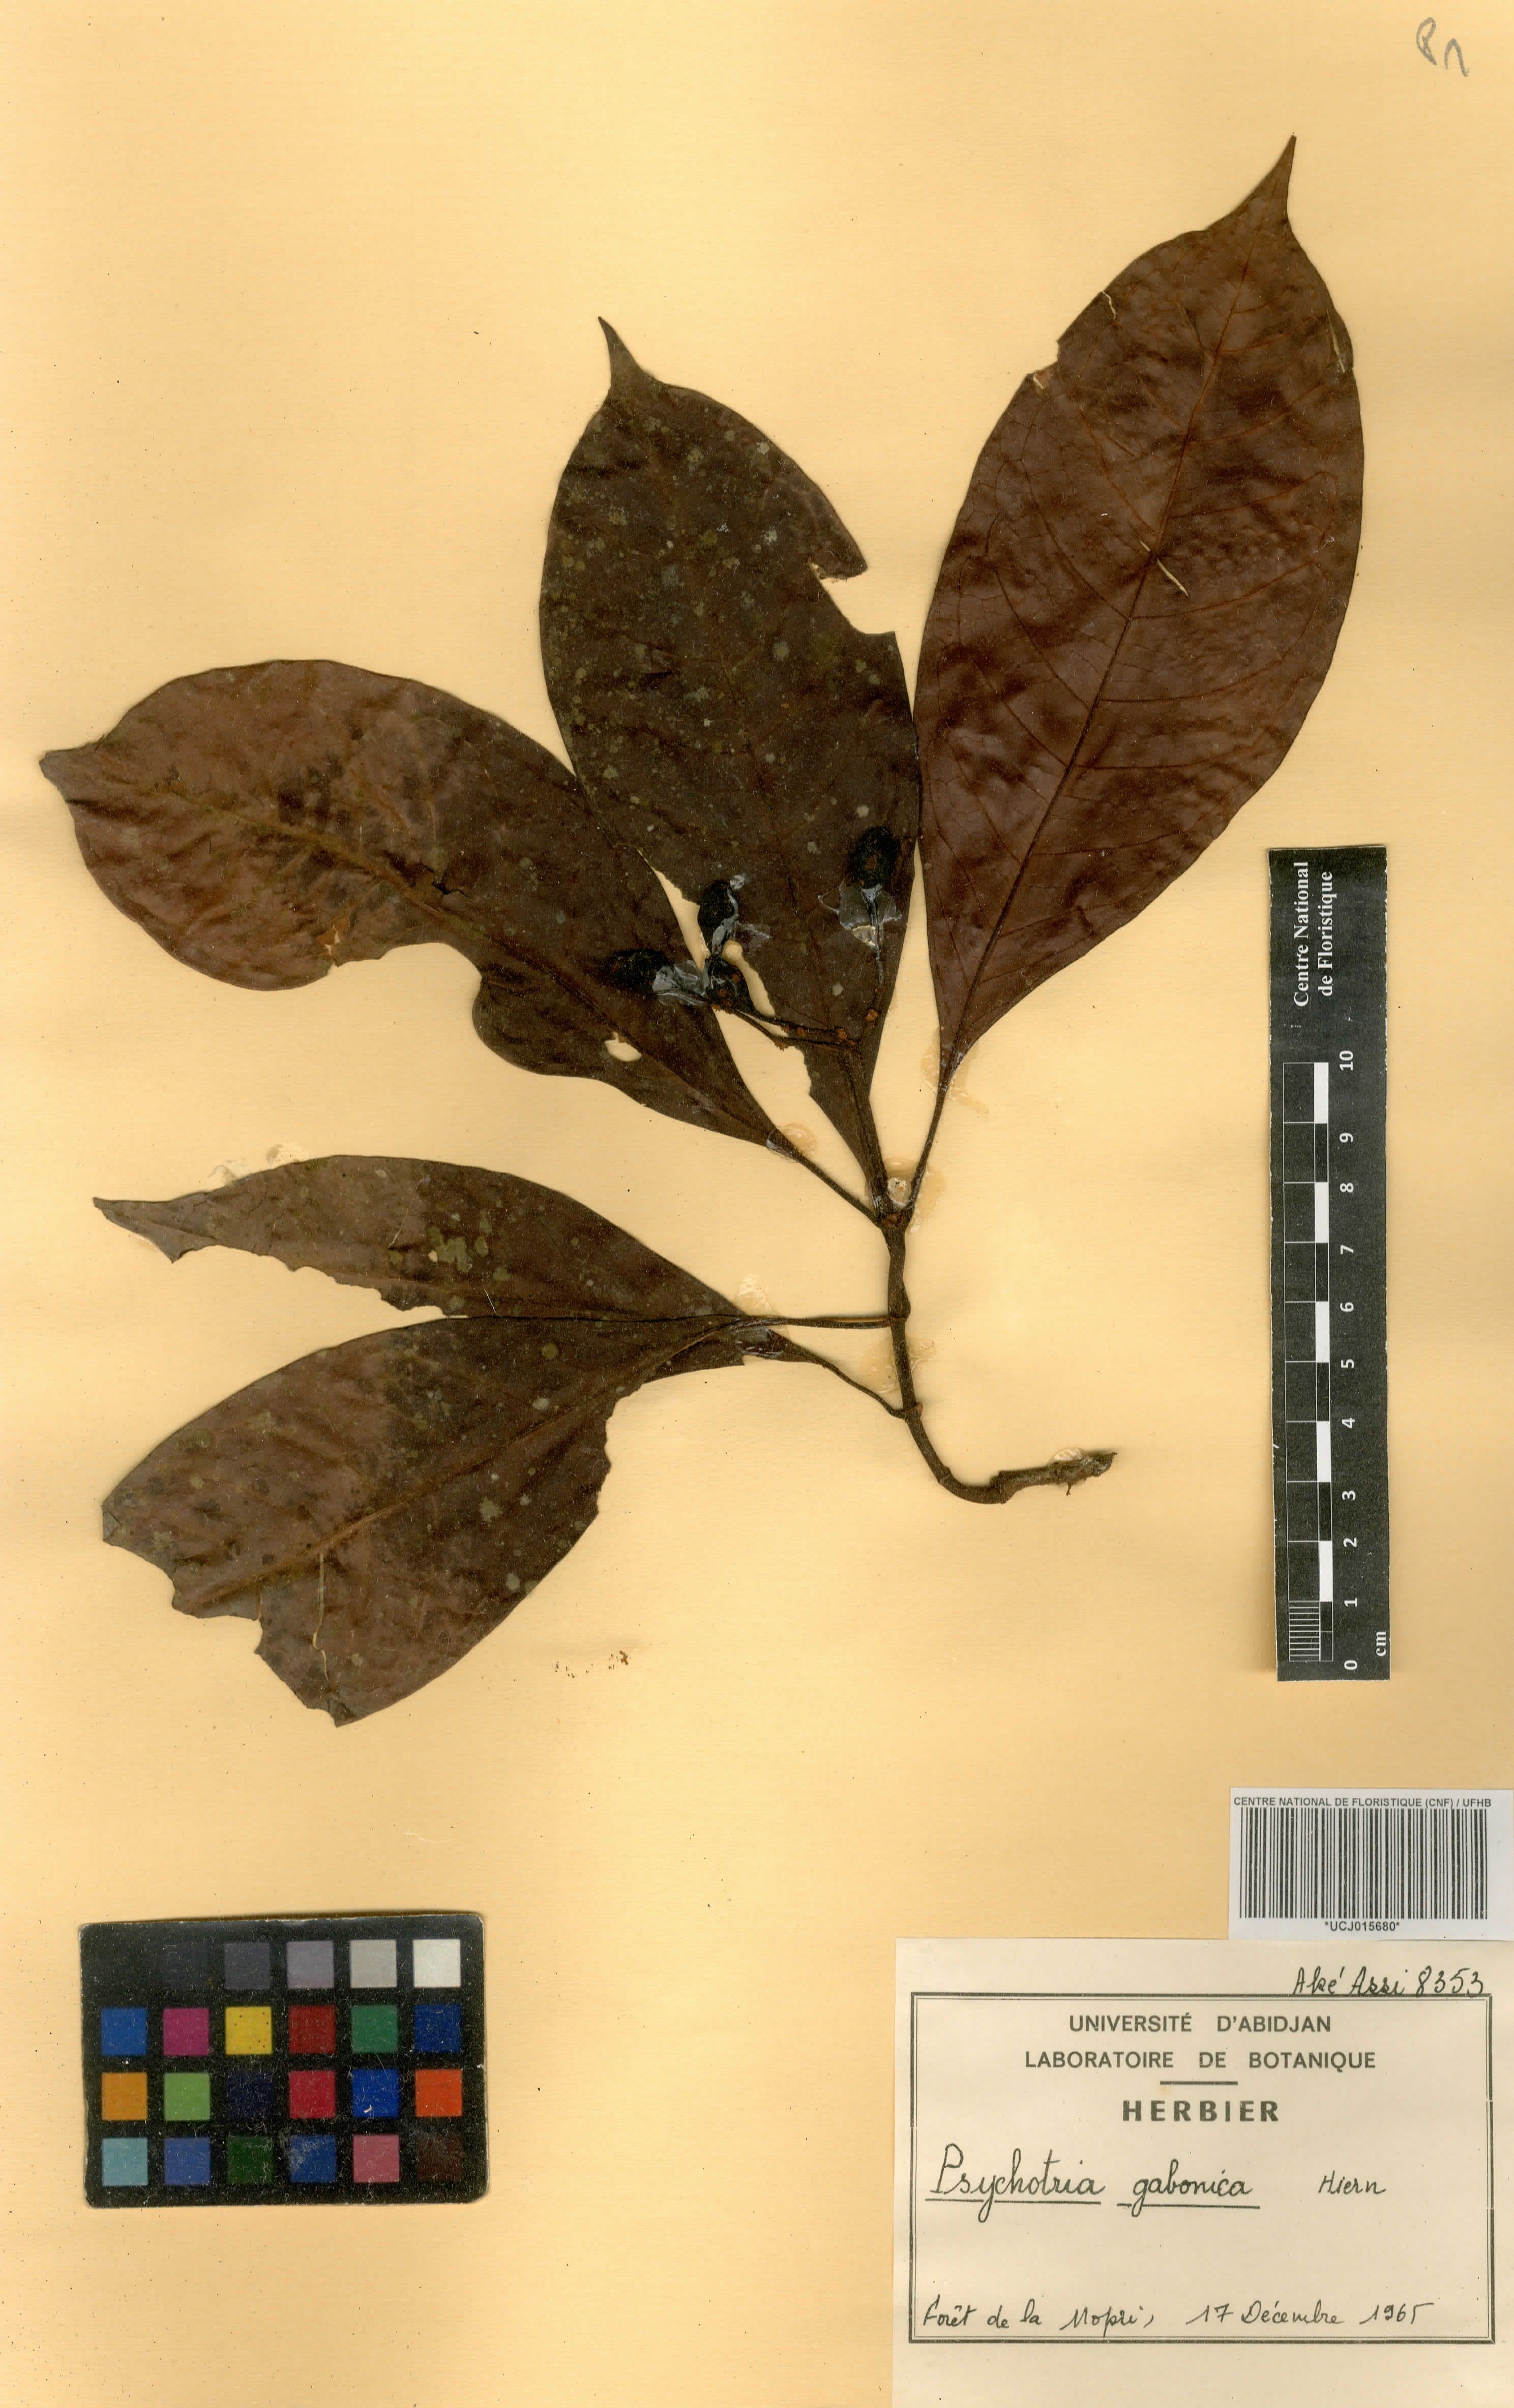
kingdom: Plantae
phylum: Tracheophyta
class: Magnoliopsida
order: Gentianales
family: Rubiaceae
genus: Psychotria
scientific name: Psychotria gabonica
